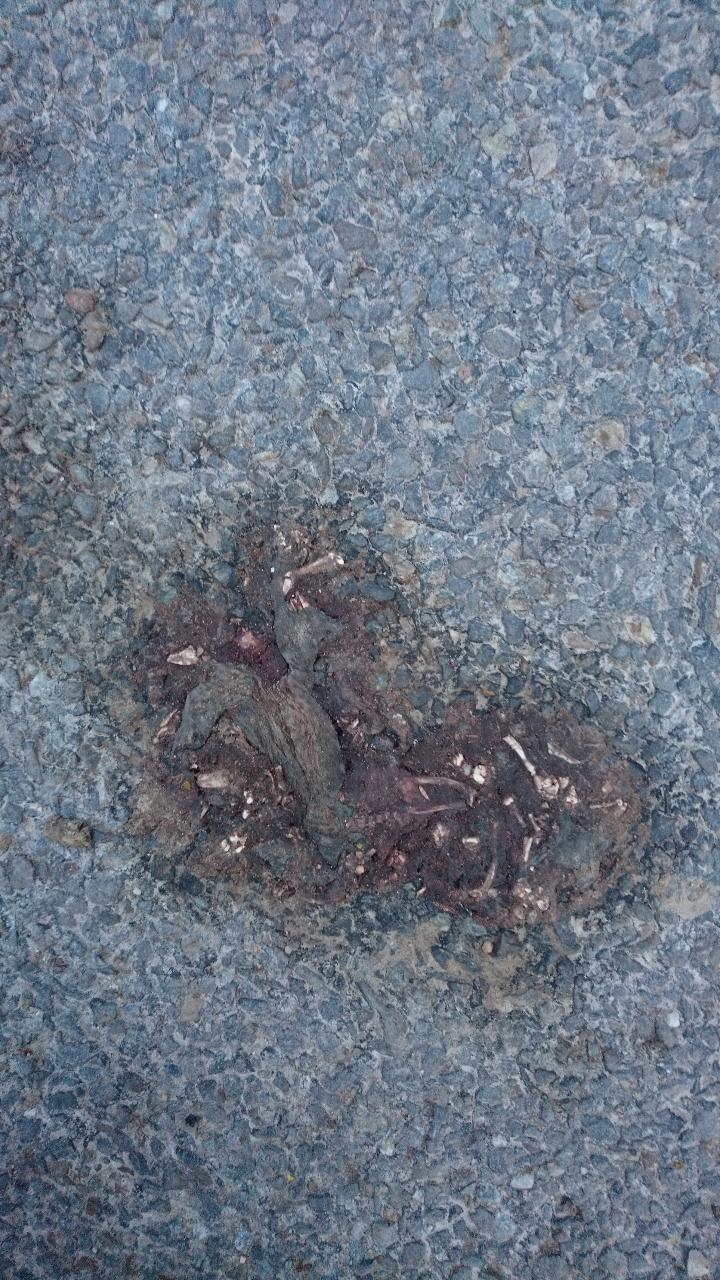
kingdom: Animalia
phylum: Chordata
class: Amphibia
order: Anura
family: Bufonidae
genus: Bufo
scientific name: Bufo bufo
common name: Common toad
